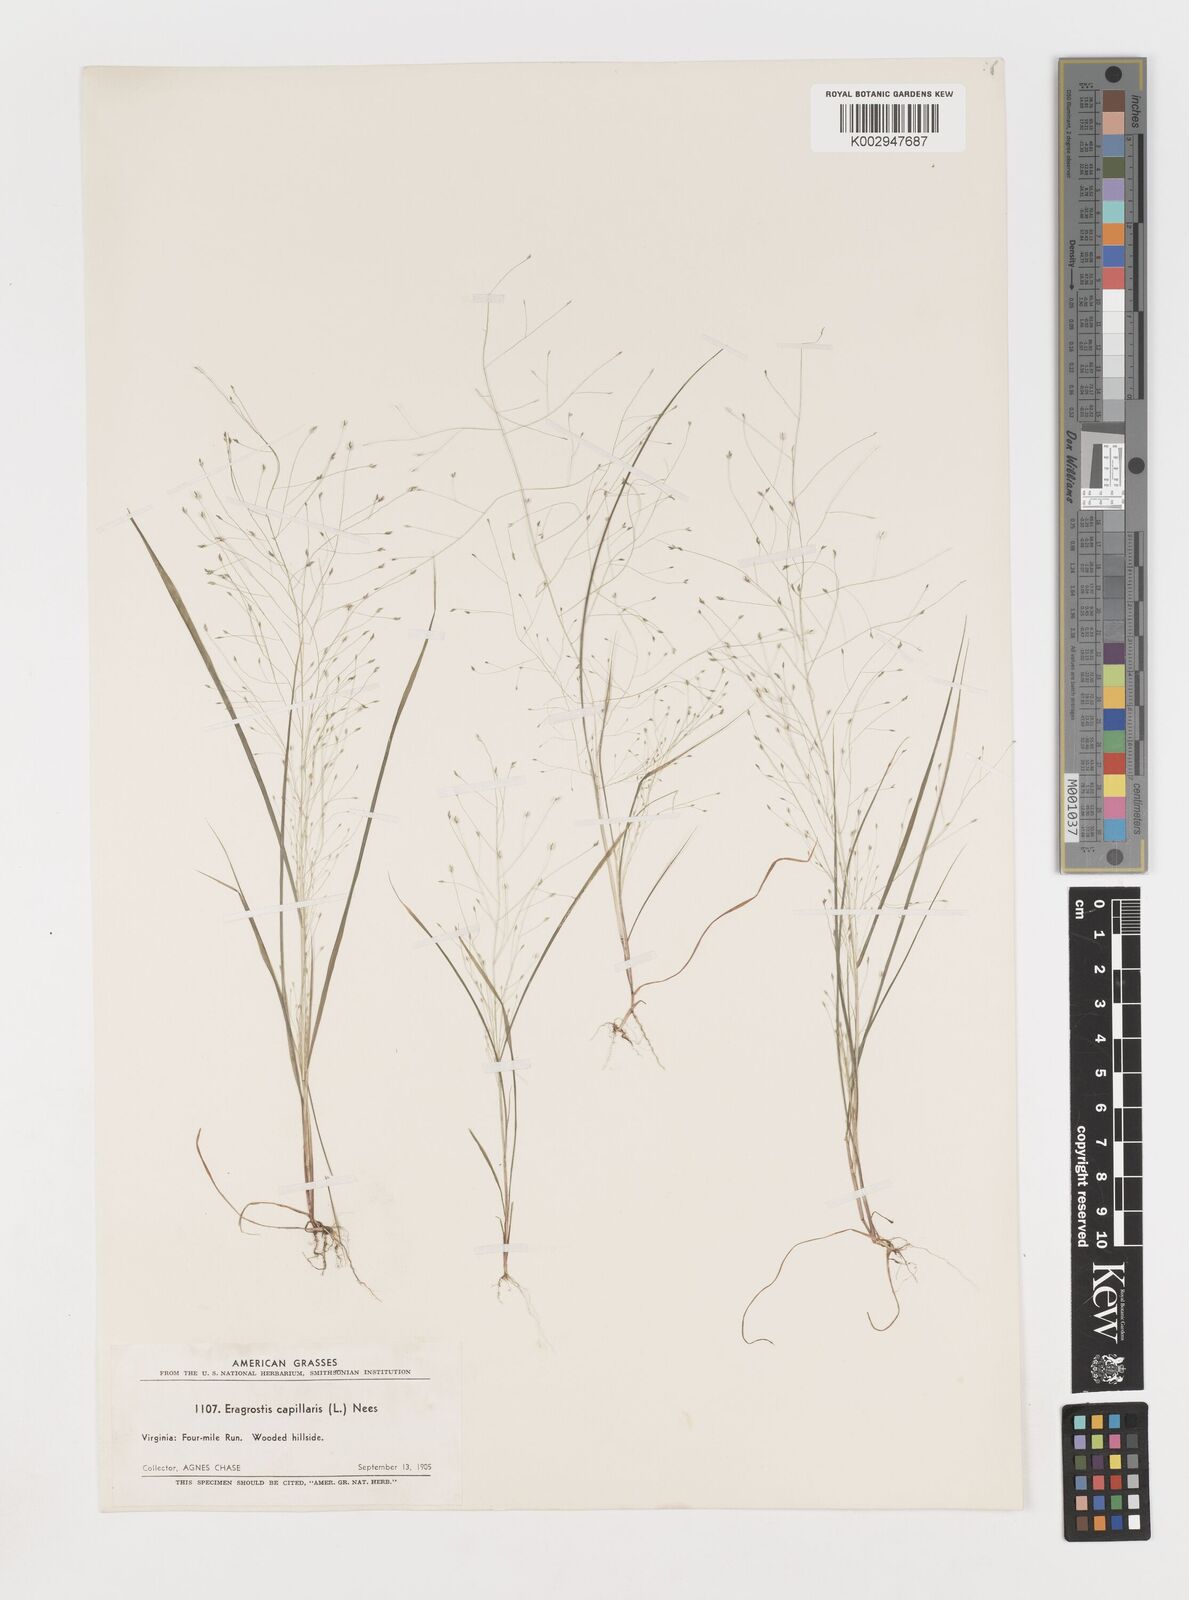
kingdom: Plantae
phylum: Tracheophyta
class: Liliopsida
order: Poales
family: Poaceae
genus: Eragrostis
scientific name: Eragrostis capillaris
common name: Hair-like lovegrass
